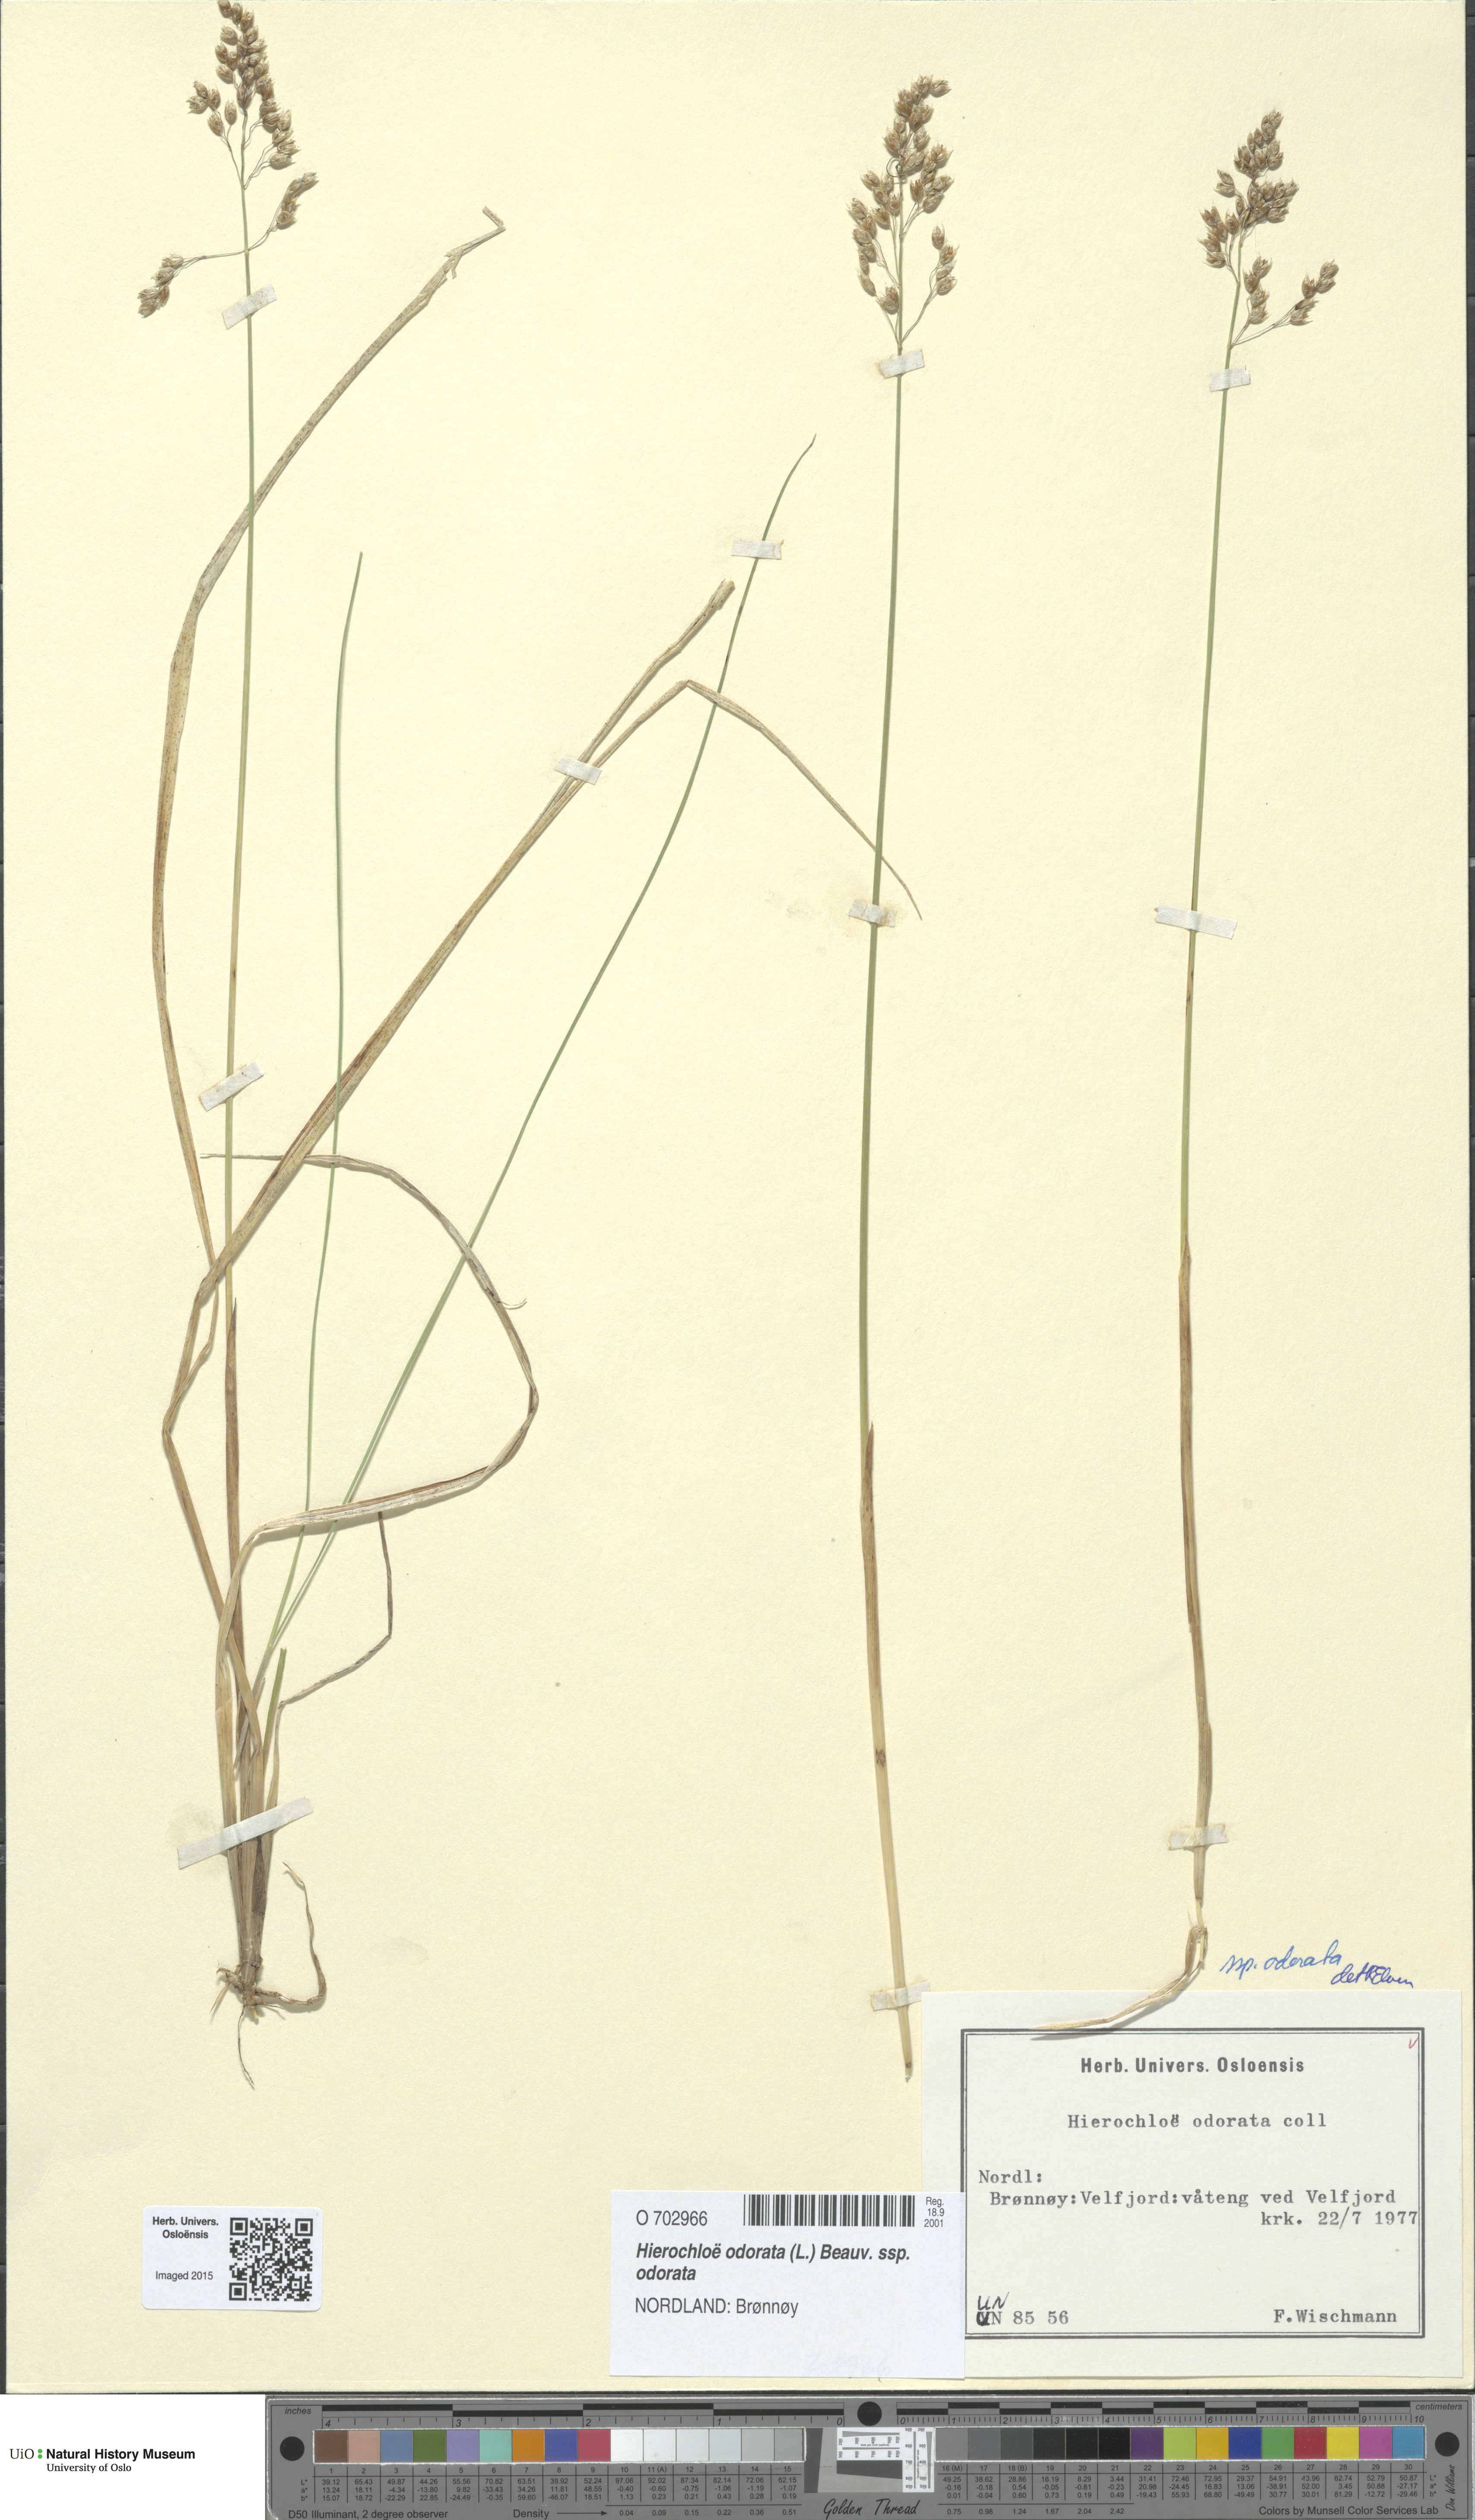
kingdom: Plantae
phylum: Tracheophyta
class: Liliopsida
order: Poales
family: Poaceae
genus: Anthoxanthum
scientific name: Anthoxanthum nitens
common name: Holy grass
